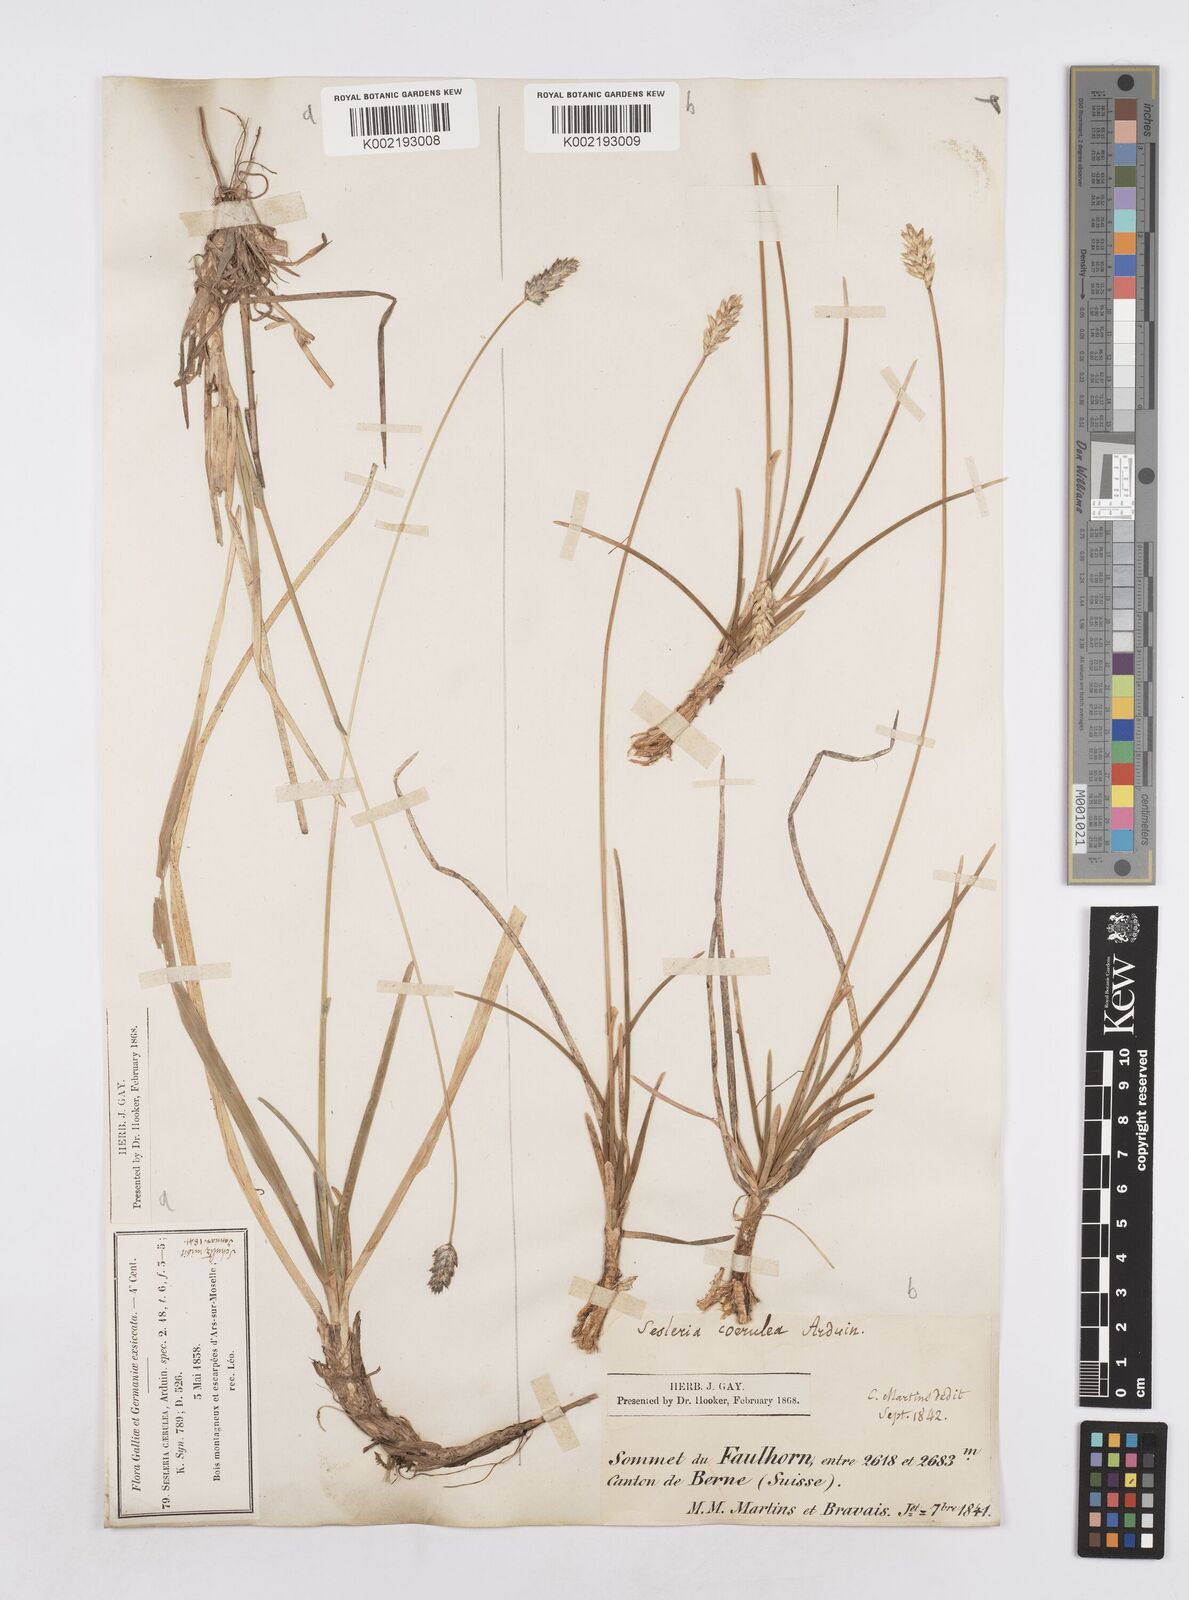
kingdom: Plantae
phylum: Tracheophyta
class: Liliopsida
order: Poales
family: Poaceae
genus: Sesleria
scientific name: Sesleria caerulea
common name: Blue moor-grass
